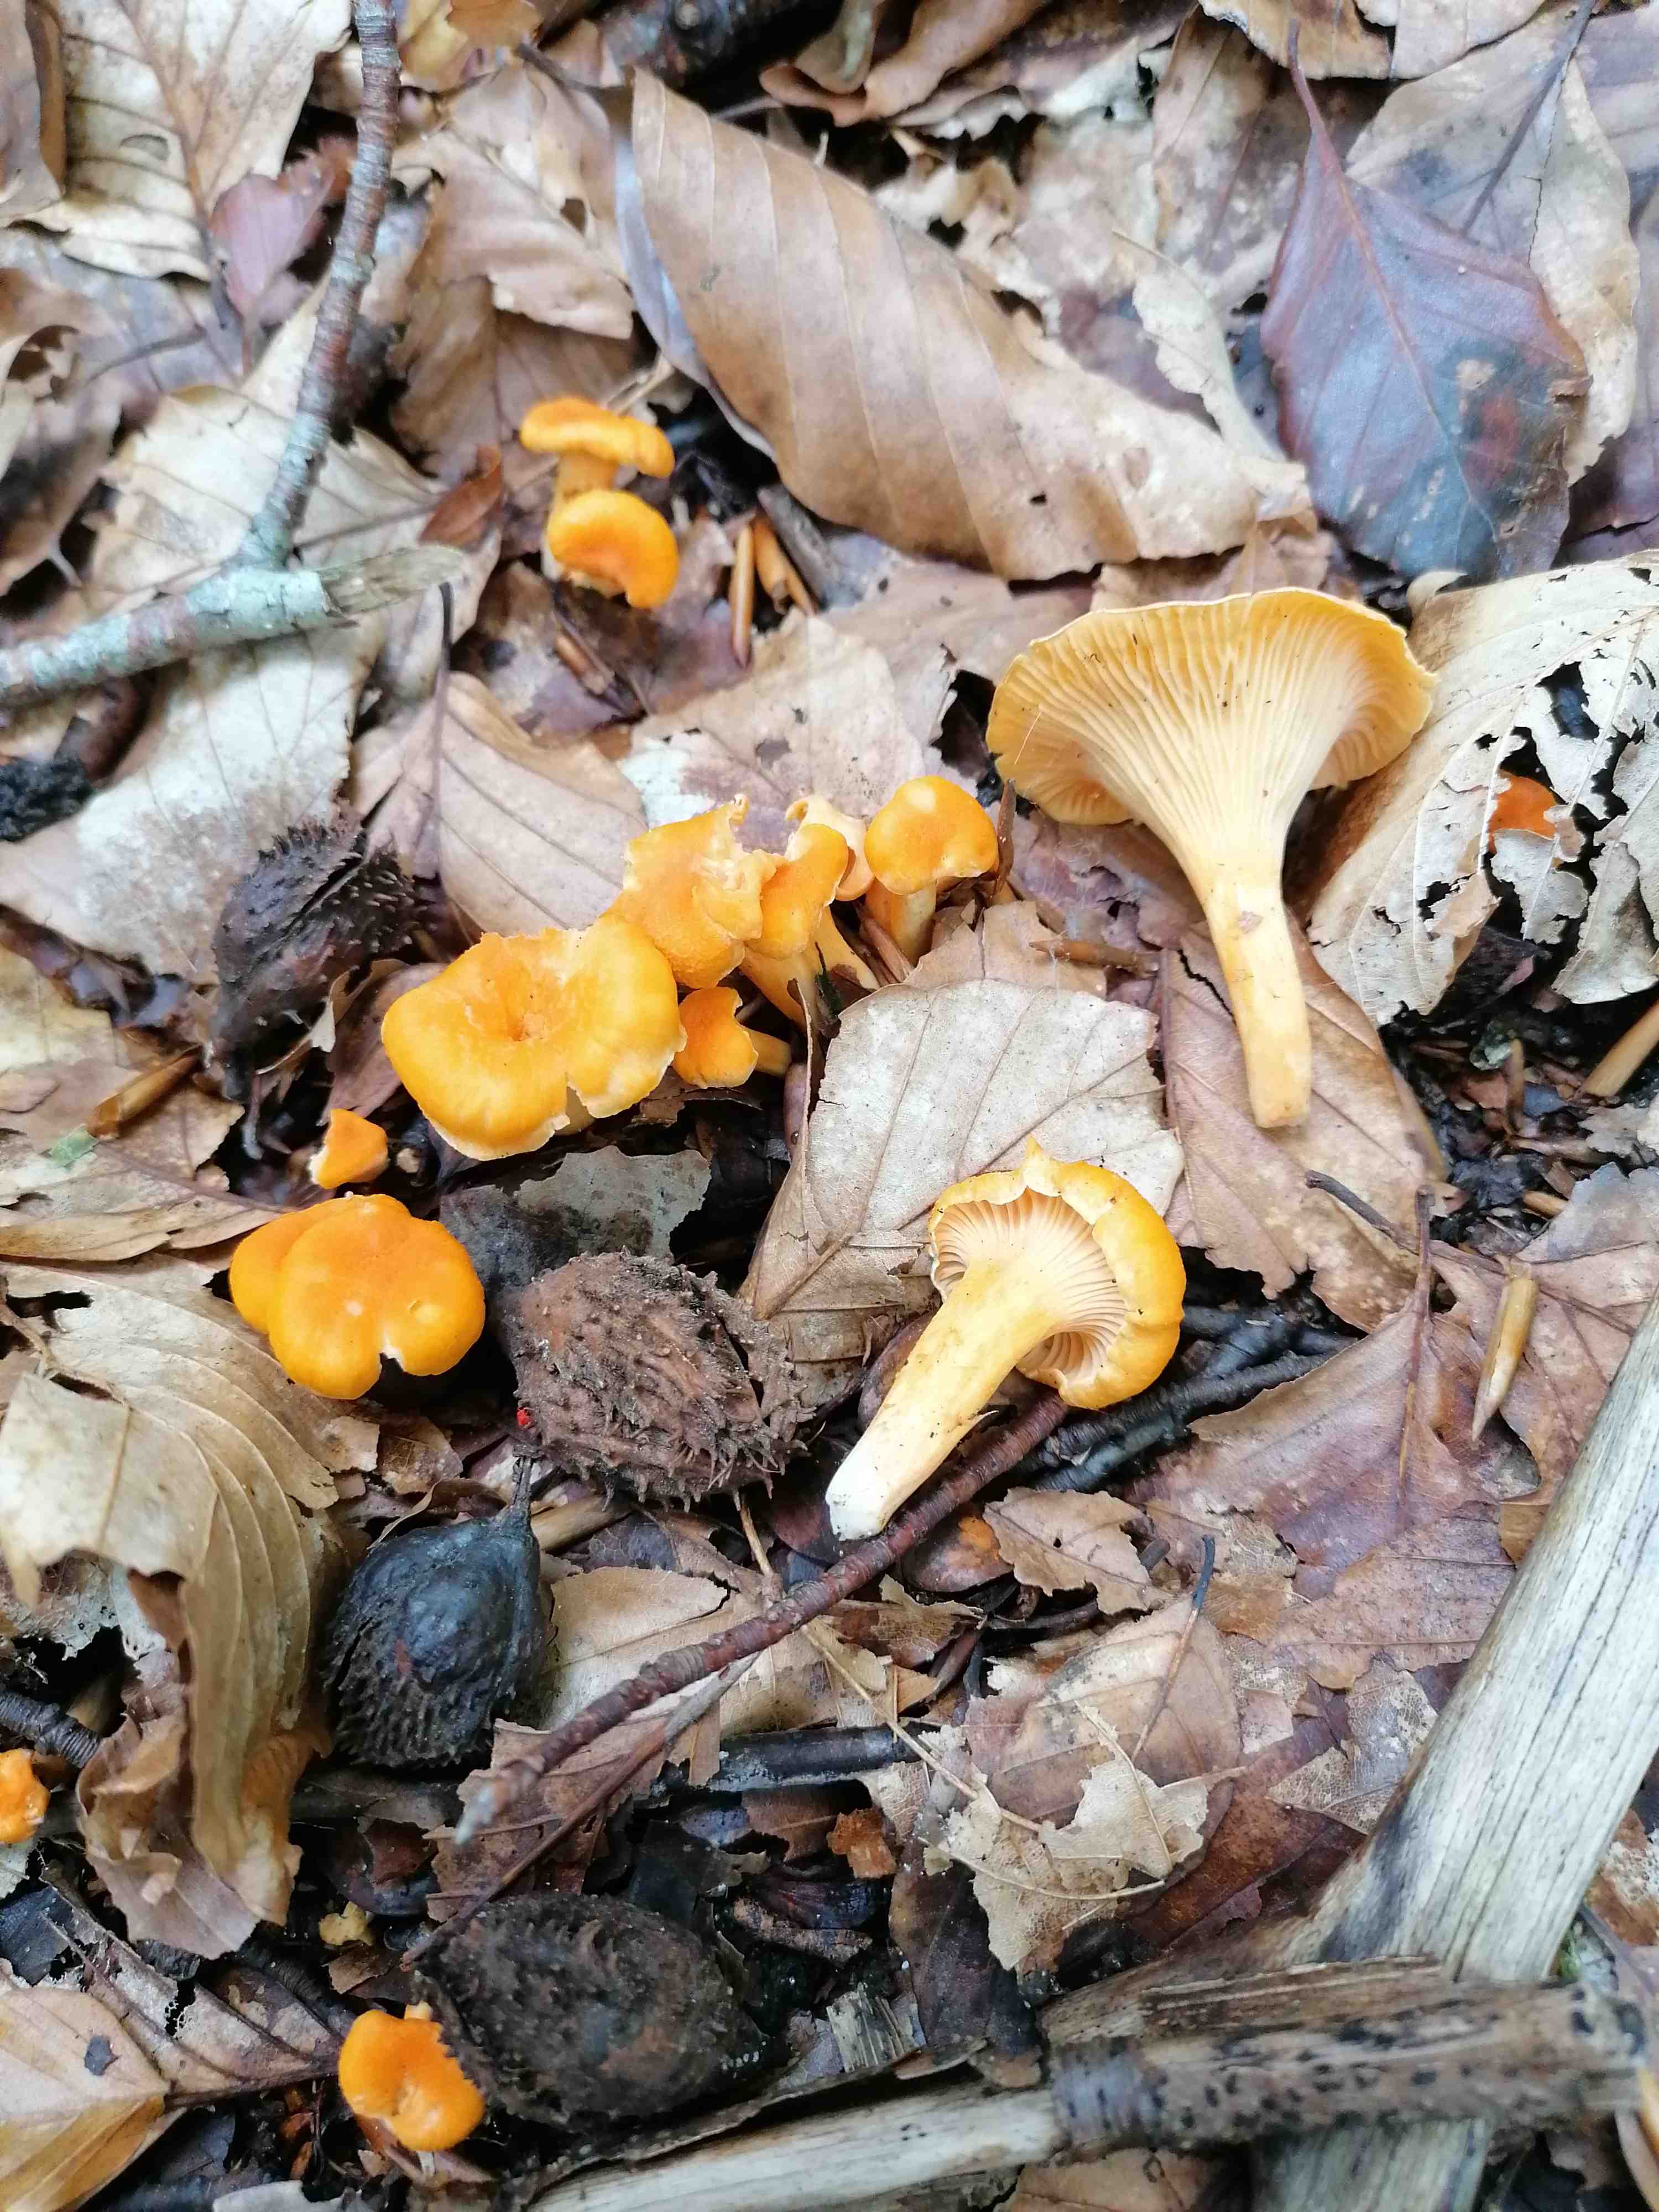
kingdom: Fungi
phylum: Basidiomycota
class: Agaricomycetes
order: Cantharellales
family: Hydnaceae
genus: Cantharellus
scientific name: Cantharellus friesii
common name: abrikos-kantarel
